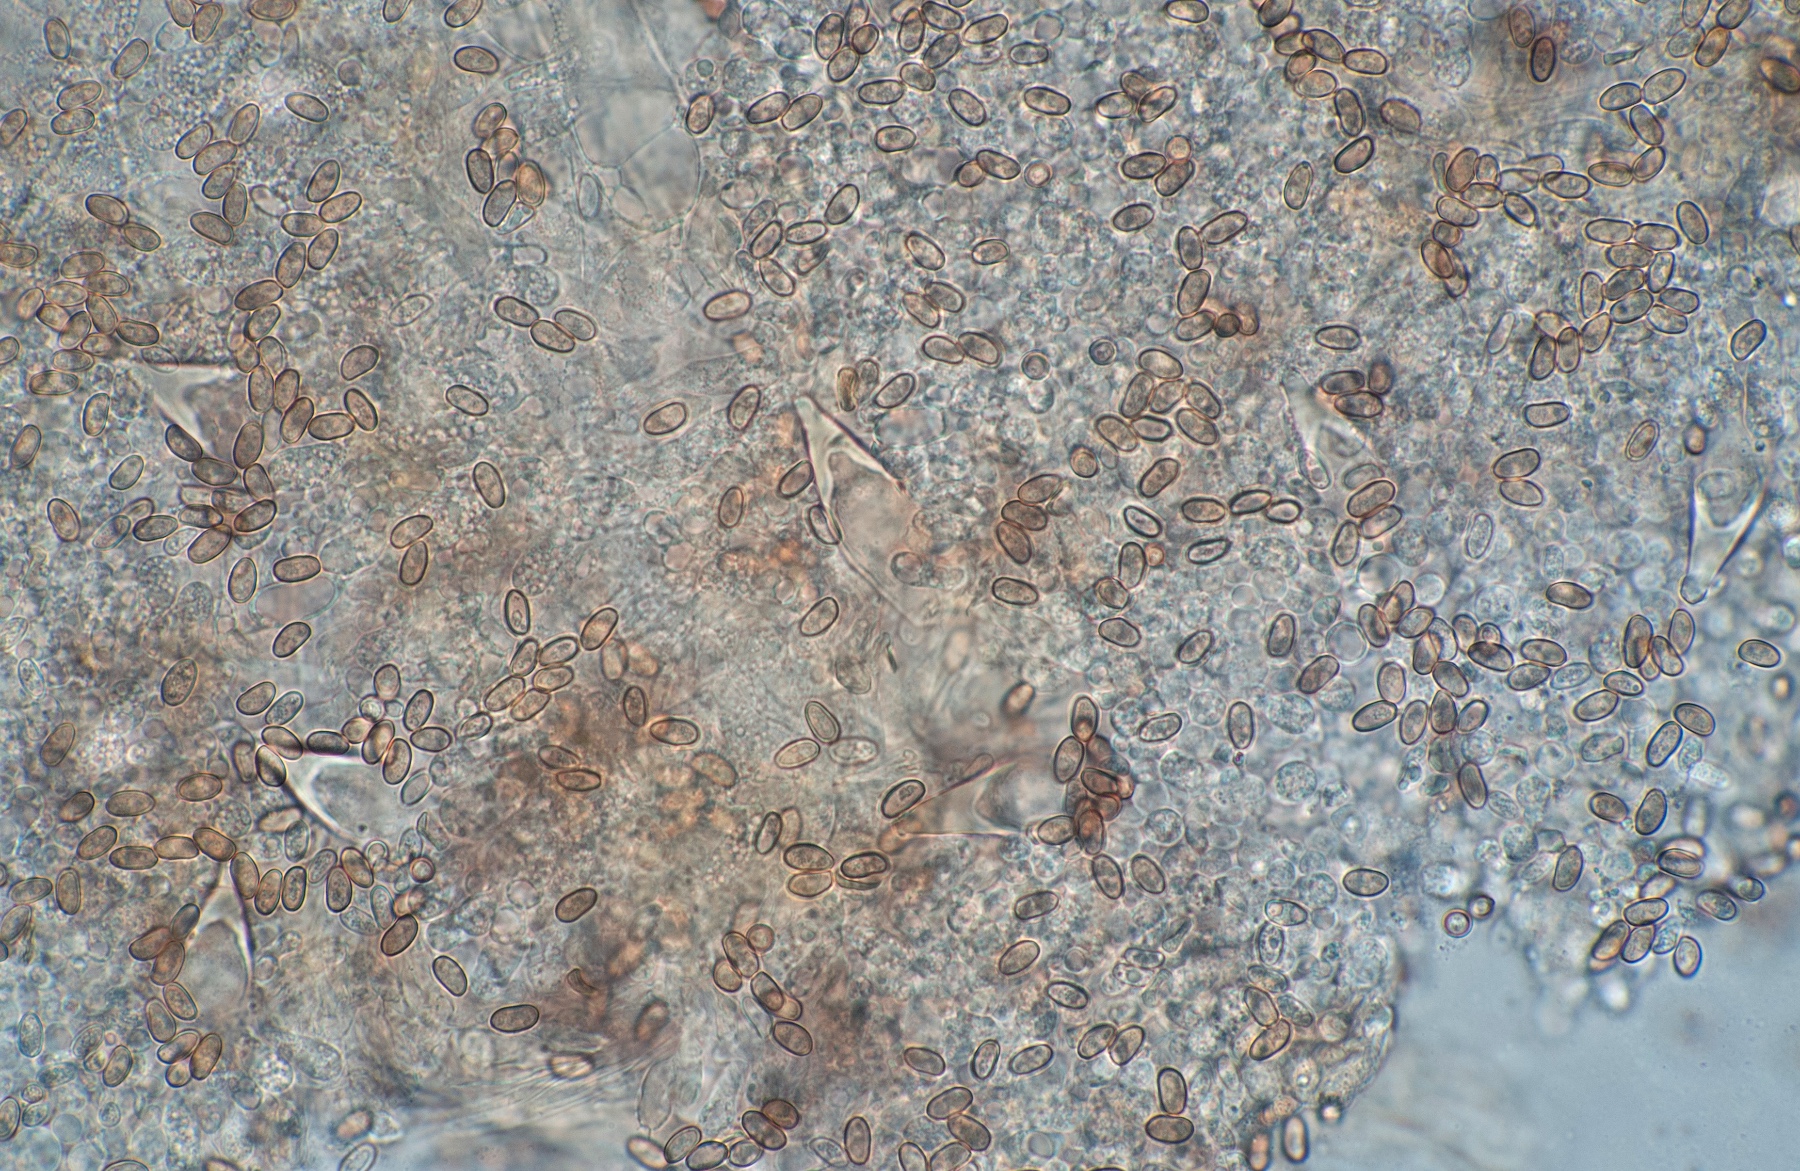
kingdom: Fungi
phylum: Basidiomycota
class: Agaricomycetes
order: Agaricales
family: Psathyrellaceae
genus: Homophron
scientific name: Homophron spadiceum
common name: daddelbrun mørkhat
